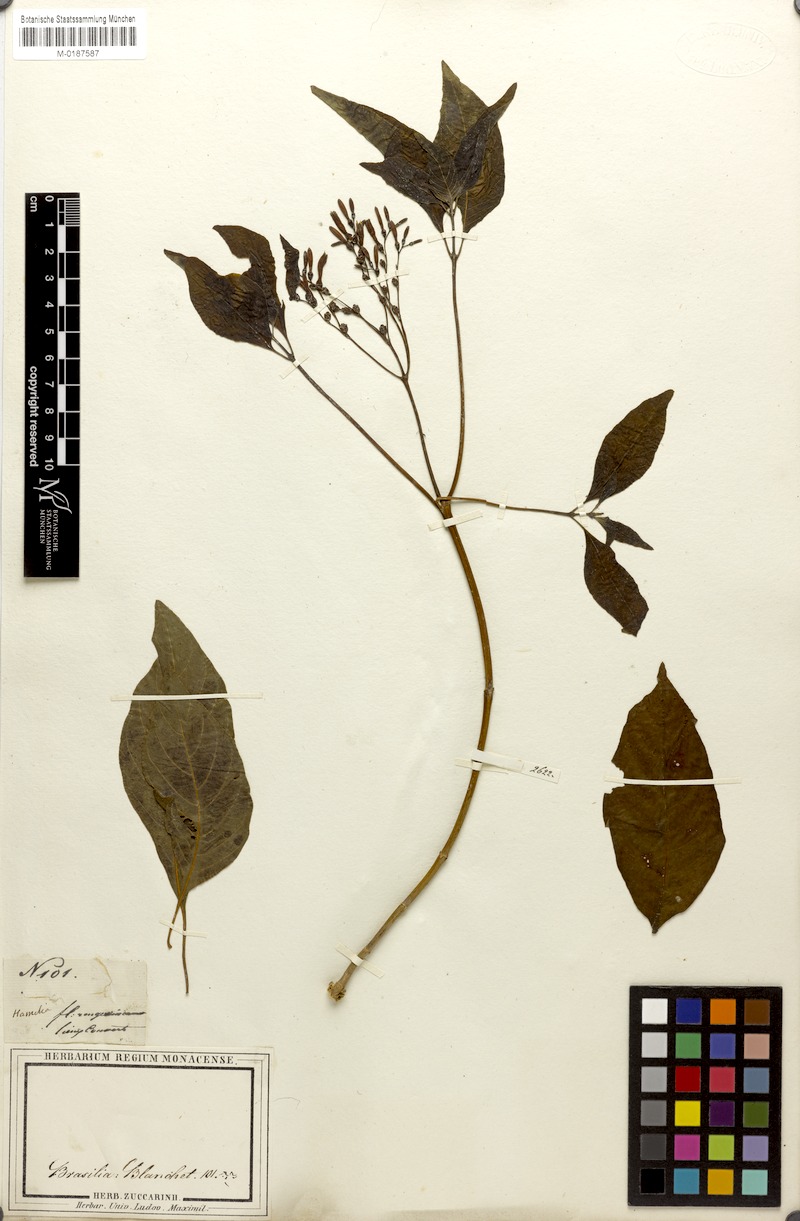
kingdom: Plantae
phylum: Tracheophyta
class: Magnoliopsida
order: Gentianales
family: Rubiaceae
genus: Hamelia
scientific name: Hamelia patens
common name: Redhead
